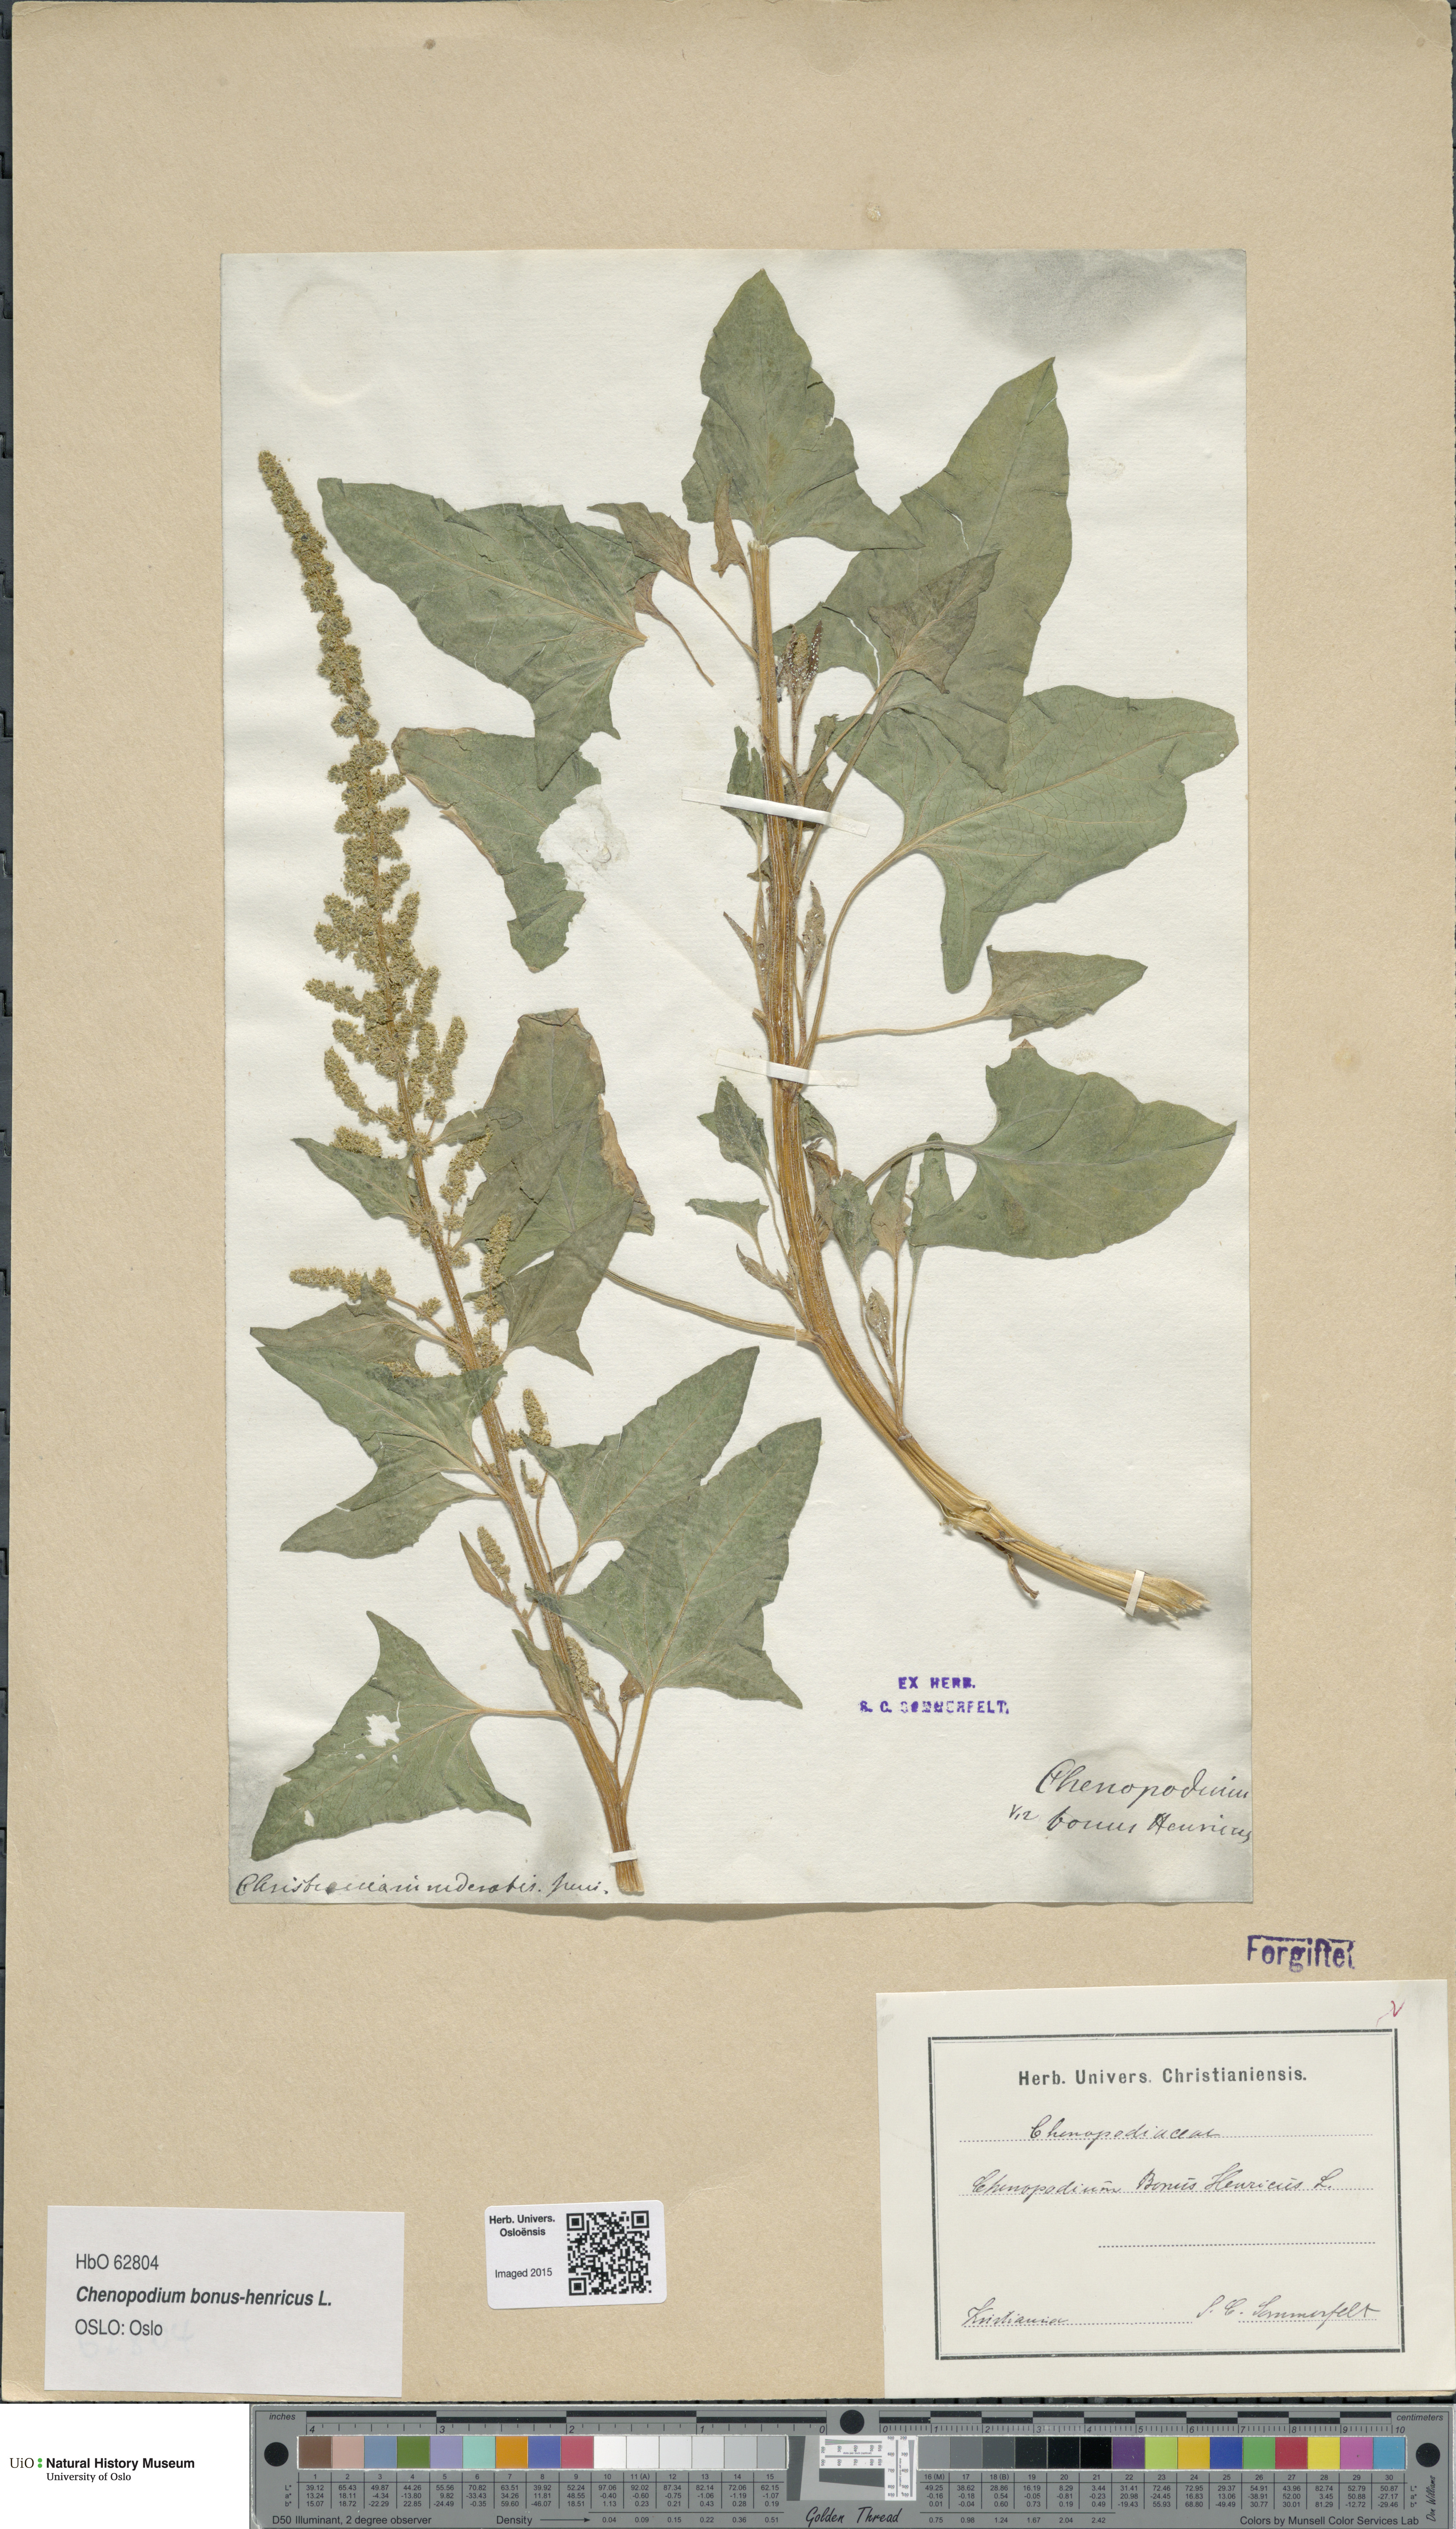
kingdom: Plantae
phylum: Tracheophyta
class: Magnoliopsida
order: Caryophyllales
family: Amaranthaceae
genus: Blitum
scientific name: Blitum bonus-henricus
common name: Good king henry
